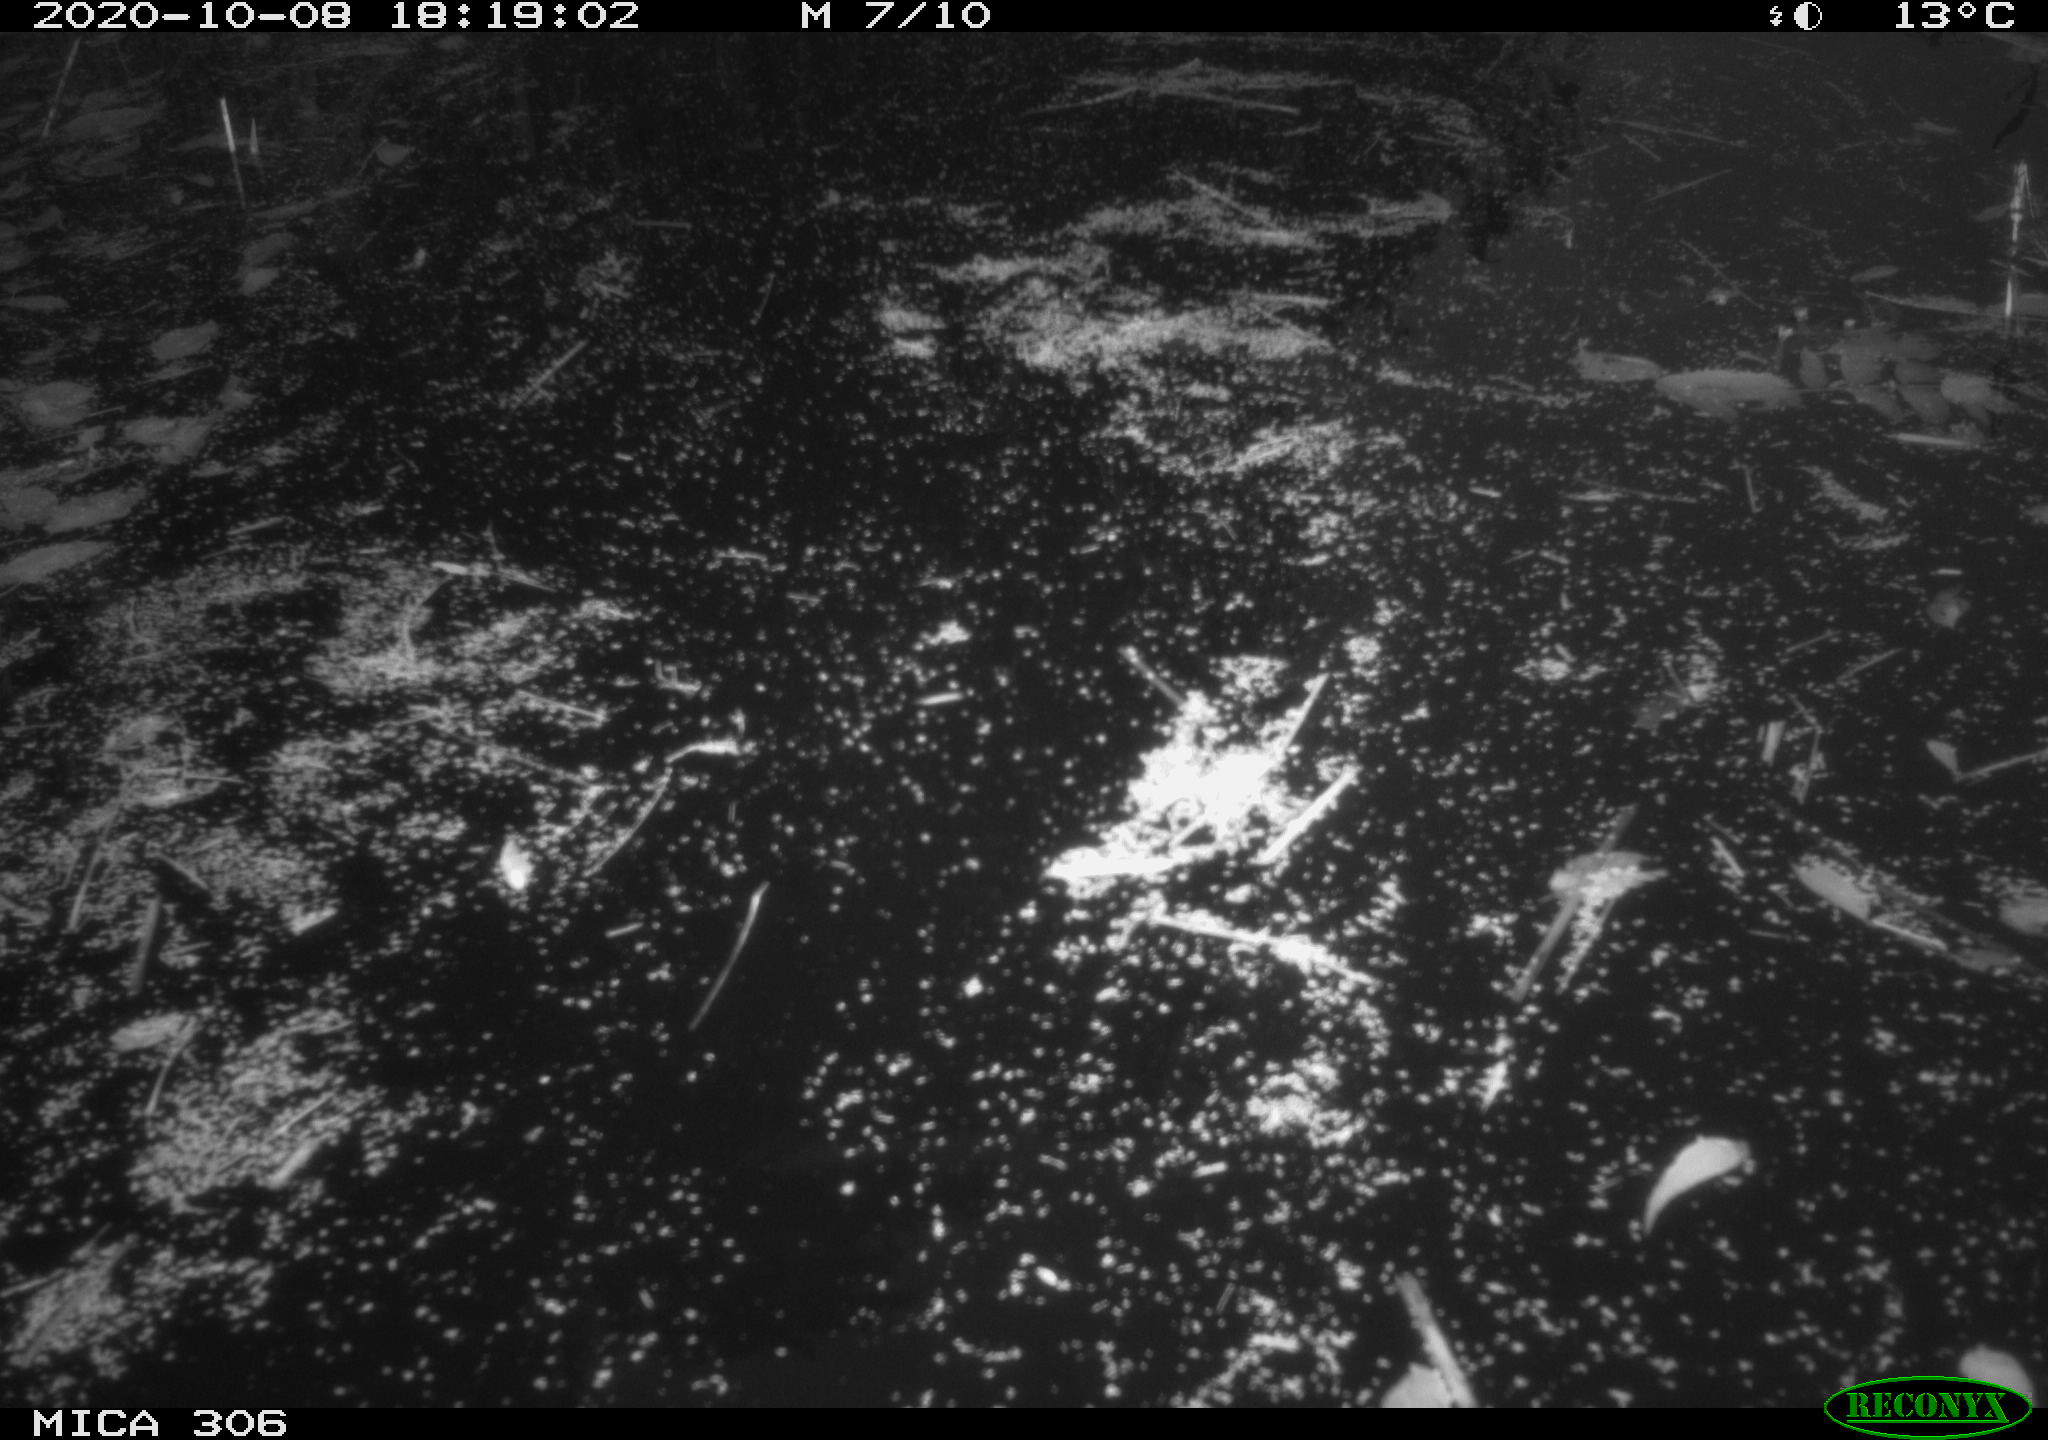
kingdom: Animalia
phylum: Chordata
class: Aves
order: Gruiformes
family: Rallidae
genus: Fulica
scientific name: Fulica atra
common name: Eurasian coot
